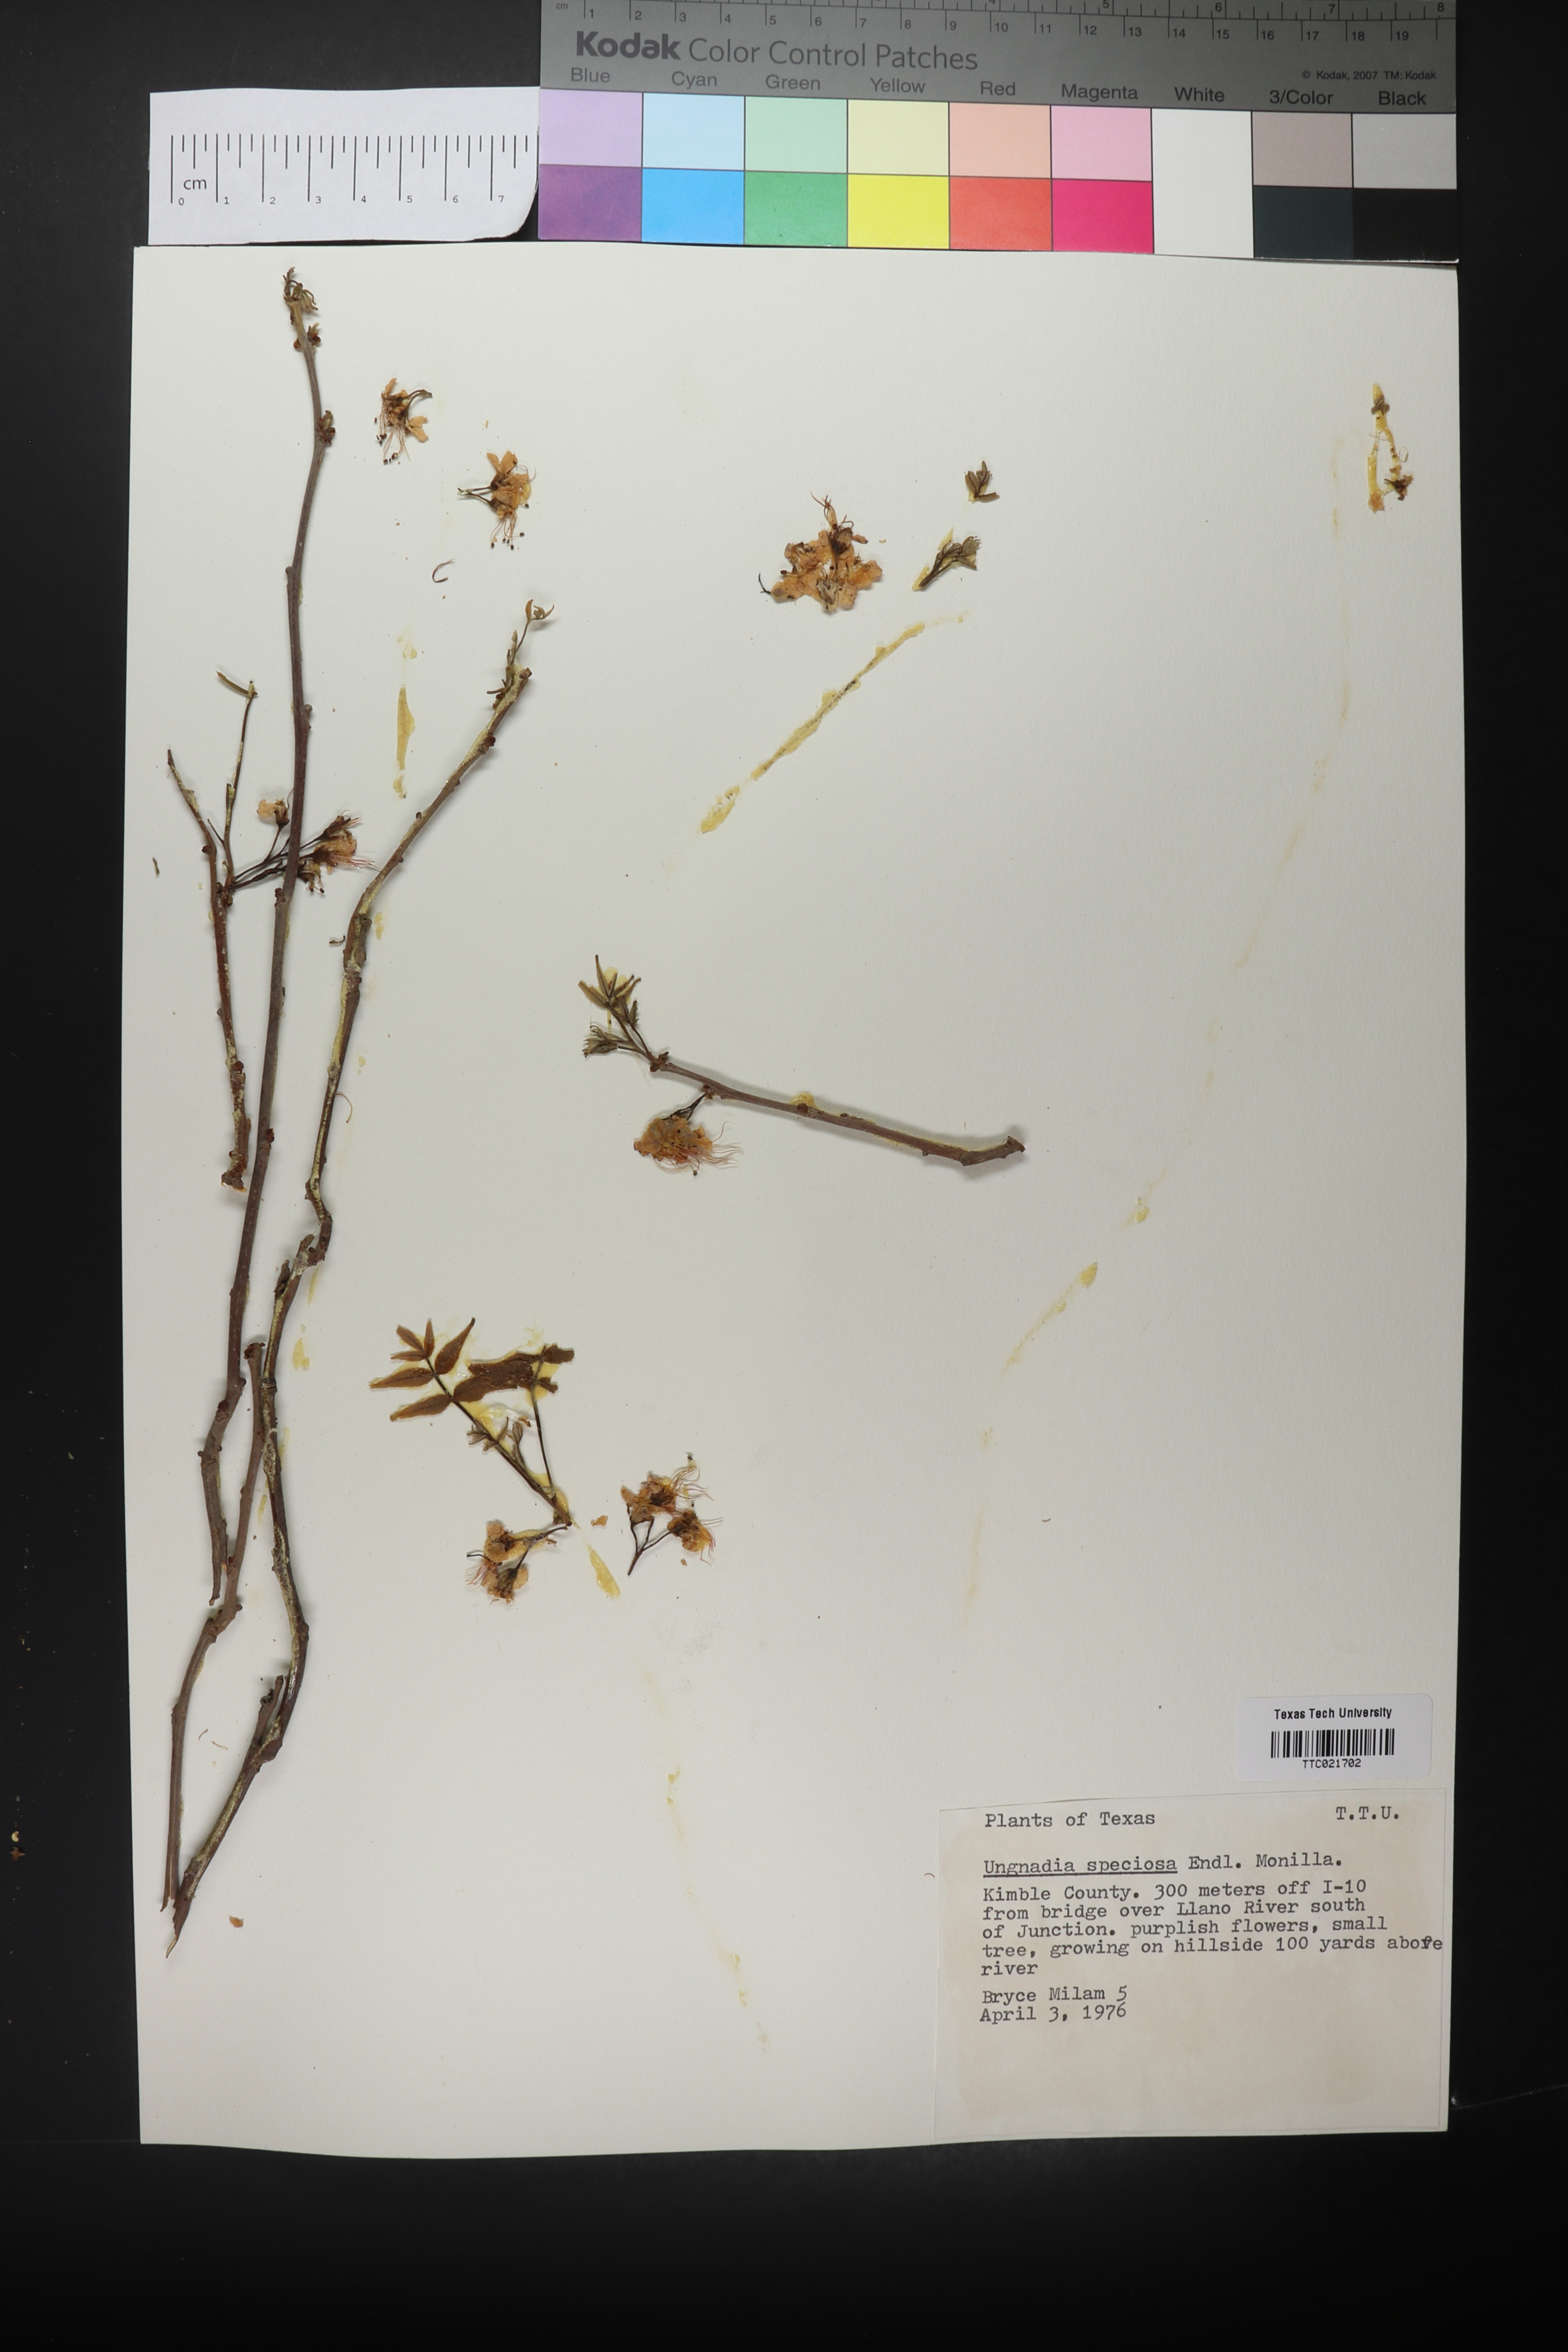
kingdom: Plantae
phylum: Tracheophyta
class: Magnoliopsida
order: Sapindales
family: Sapindaceae
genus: Ungnadia
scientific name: Ungnadia speciosa
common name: Texas-buckeye
